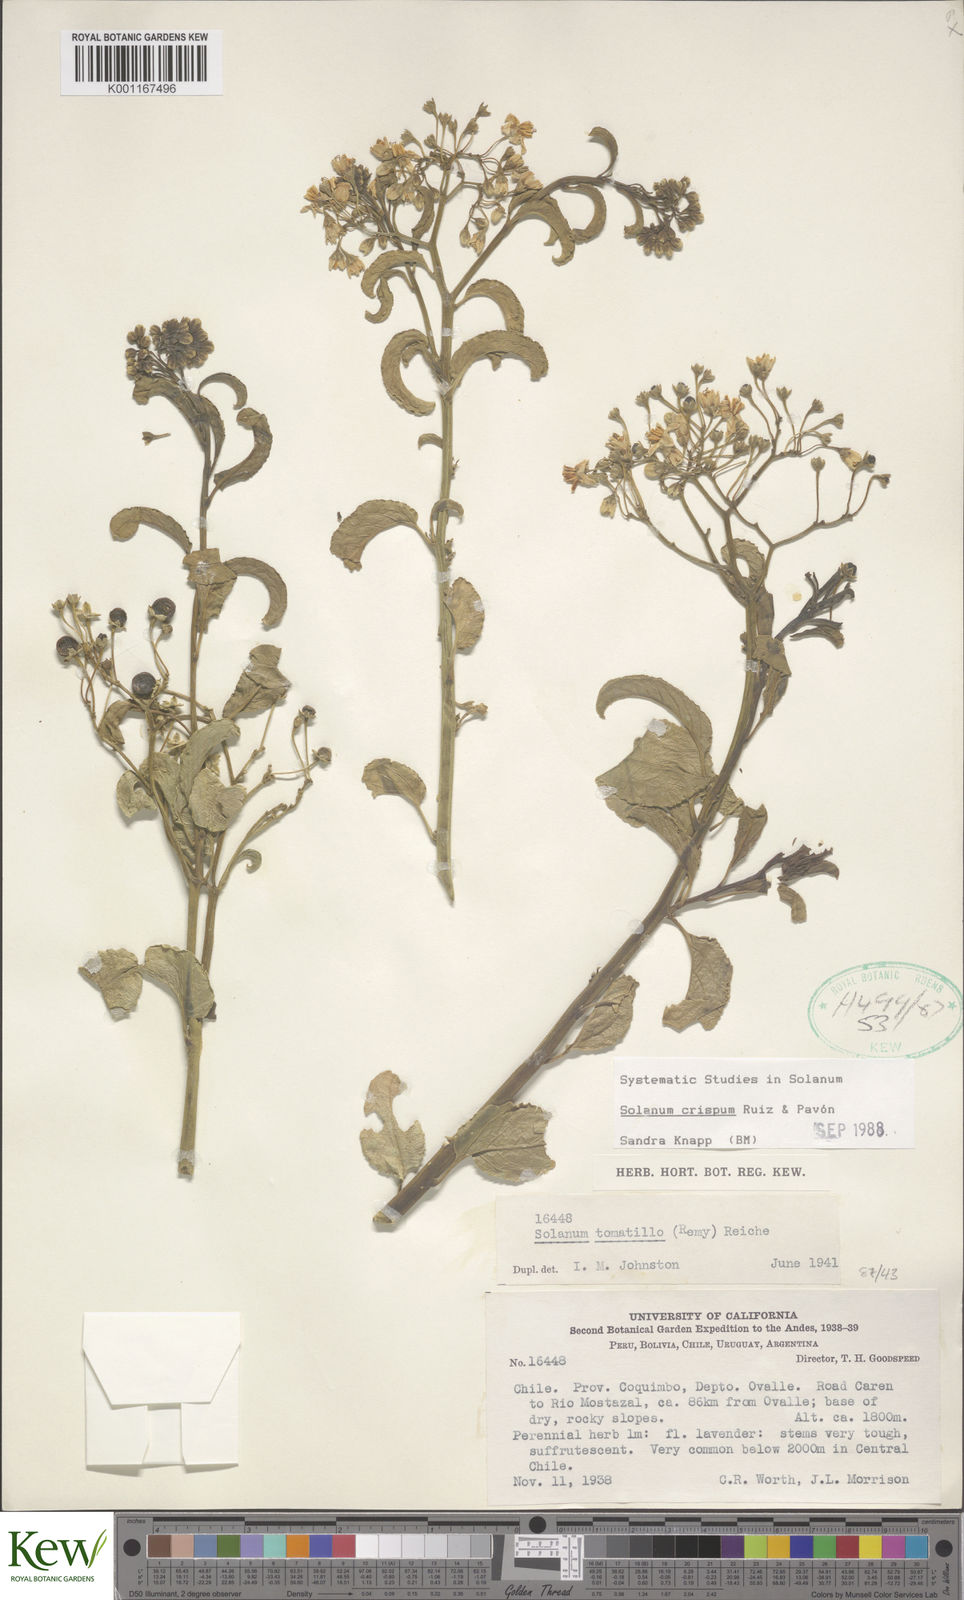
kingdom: Plantae
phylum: Tracheophyta
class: Magnoliopsida
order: Solanales
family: Solanaceae
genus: Solanum
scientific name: Solanum crispum
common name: Chilean nightshade
